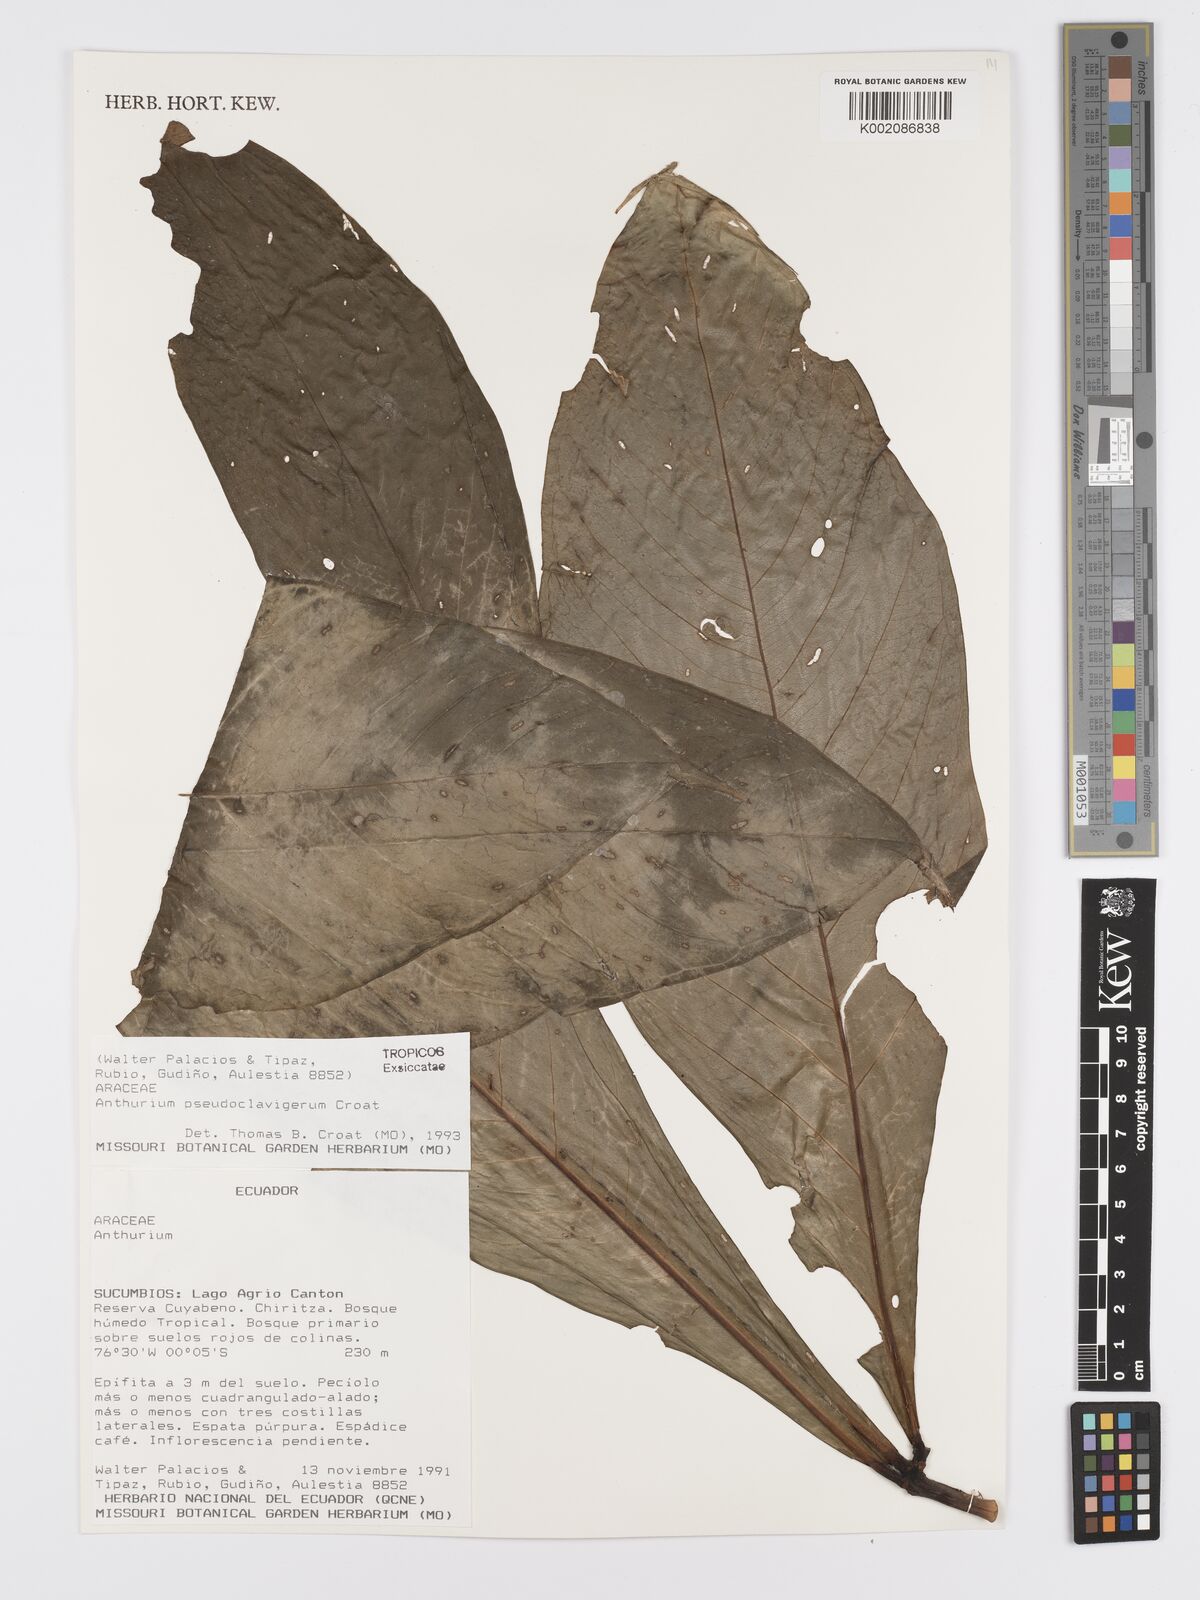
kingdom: Plantae
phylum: Tracheophyta
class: Liliopsida
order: Alismatales
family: Araceae
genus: Anthurium
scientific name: Anthurium
